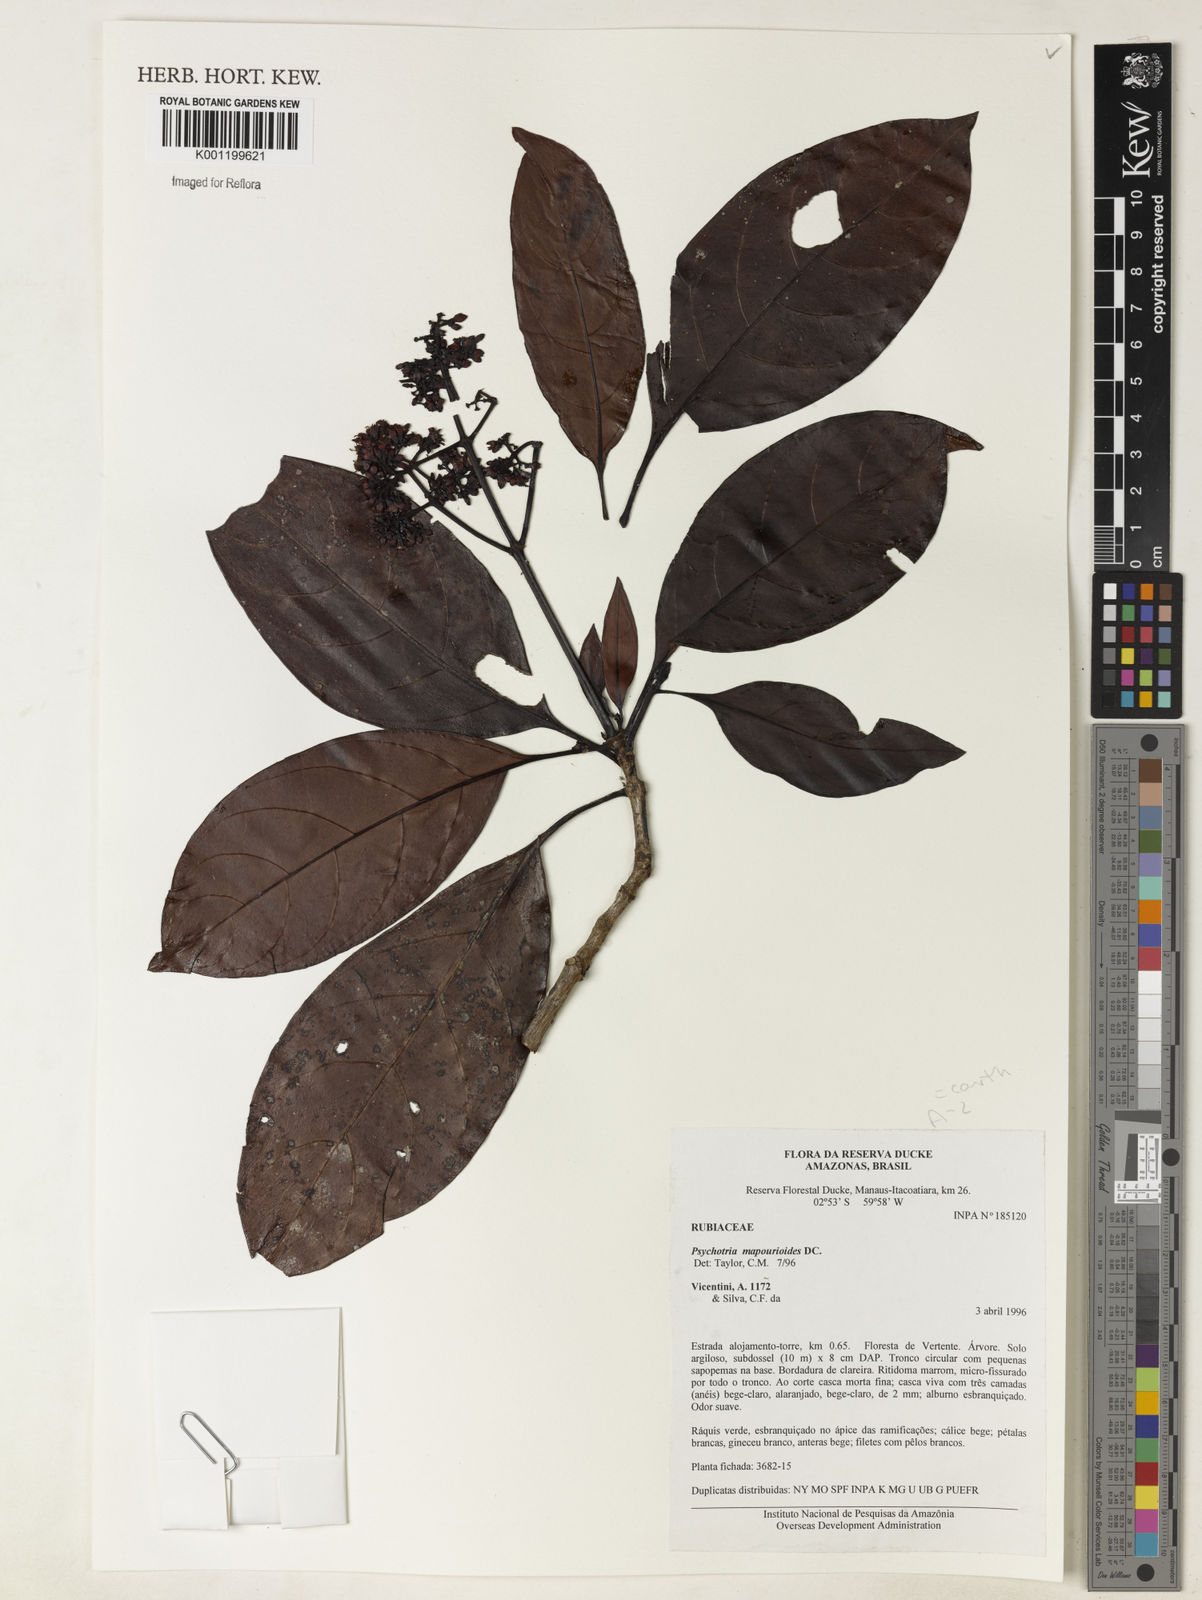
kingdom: Plantae
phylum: Tracheophyta
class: Magnoliopsida
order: Gentianales
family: Rubiaceae
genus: Psychotria
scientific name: Psychotria carthagenensis
